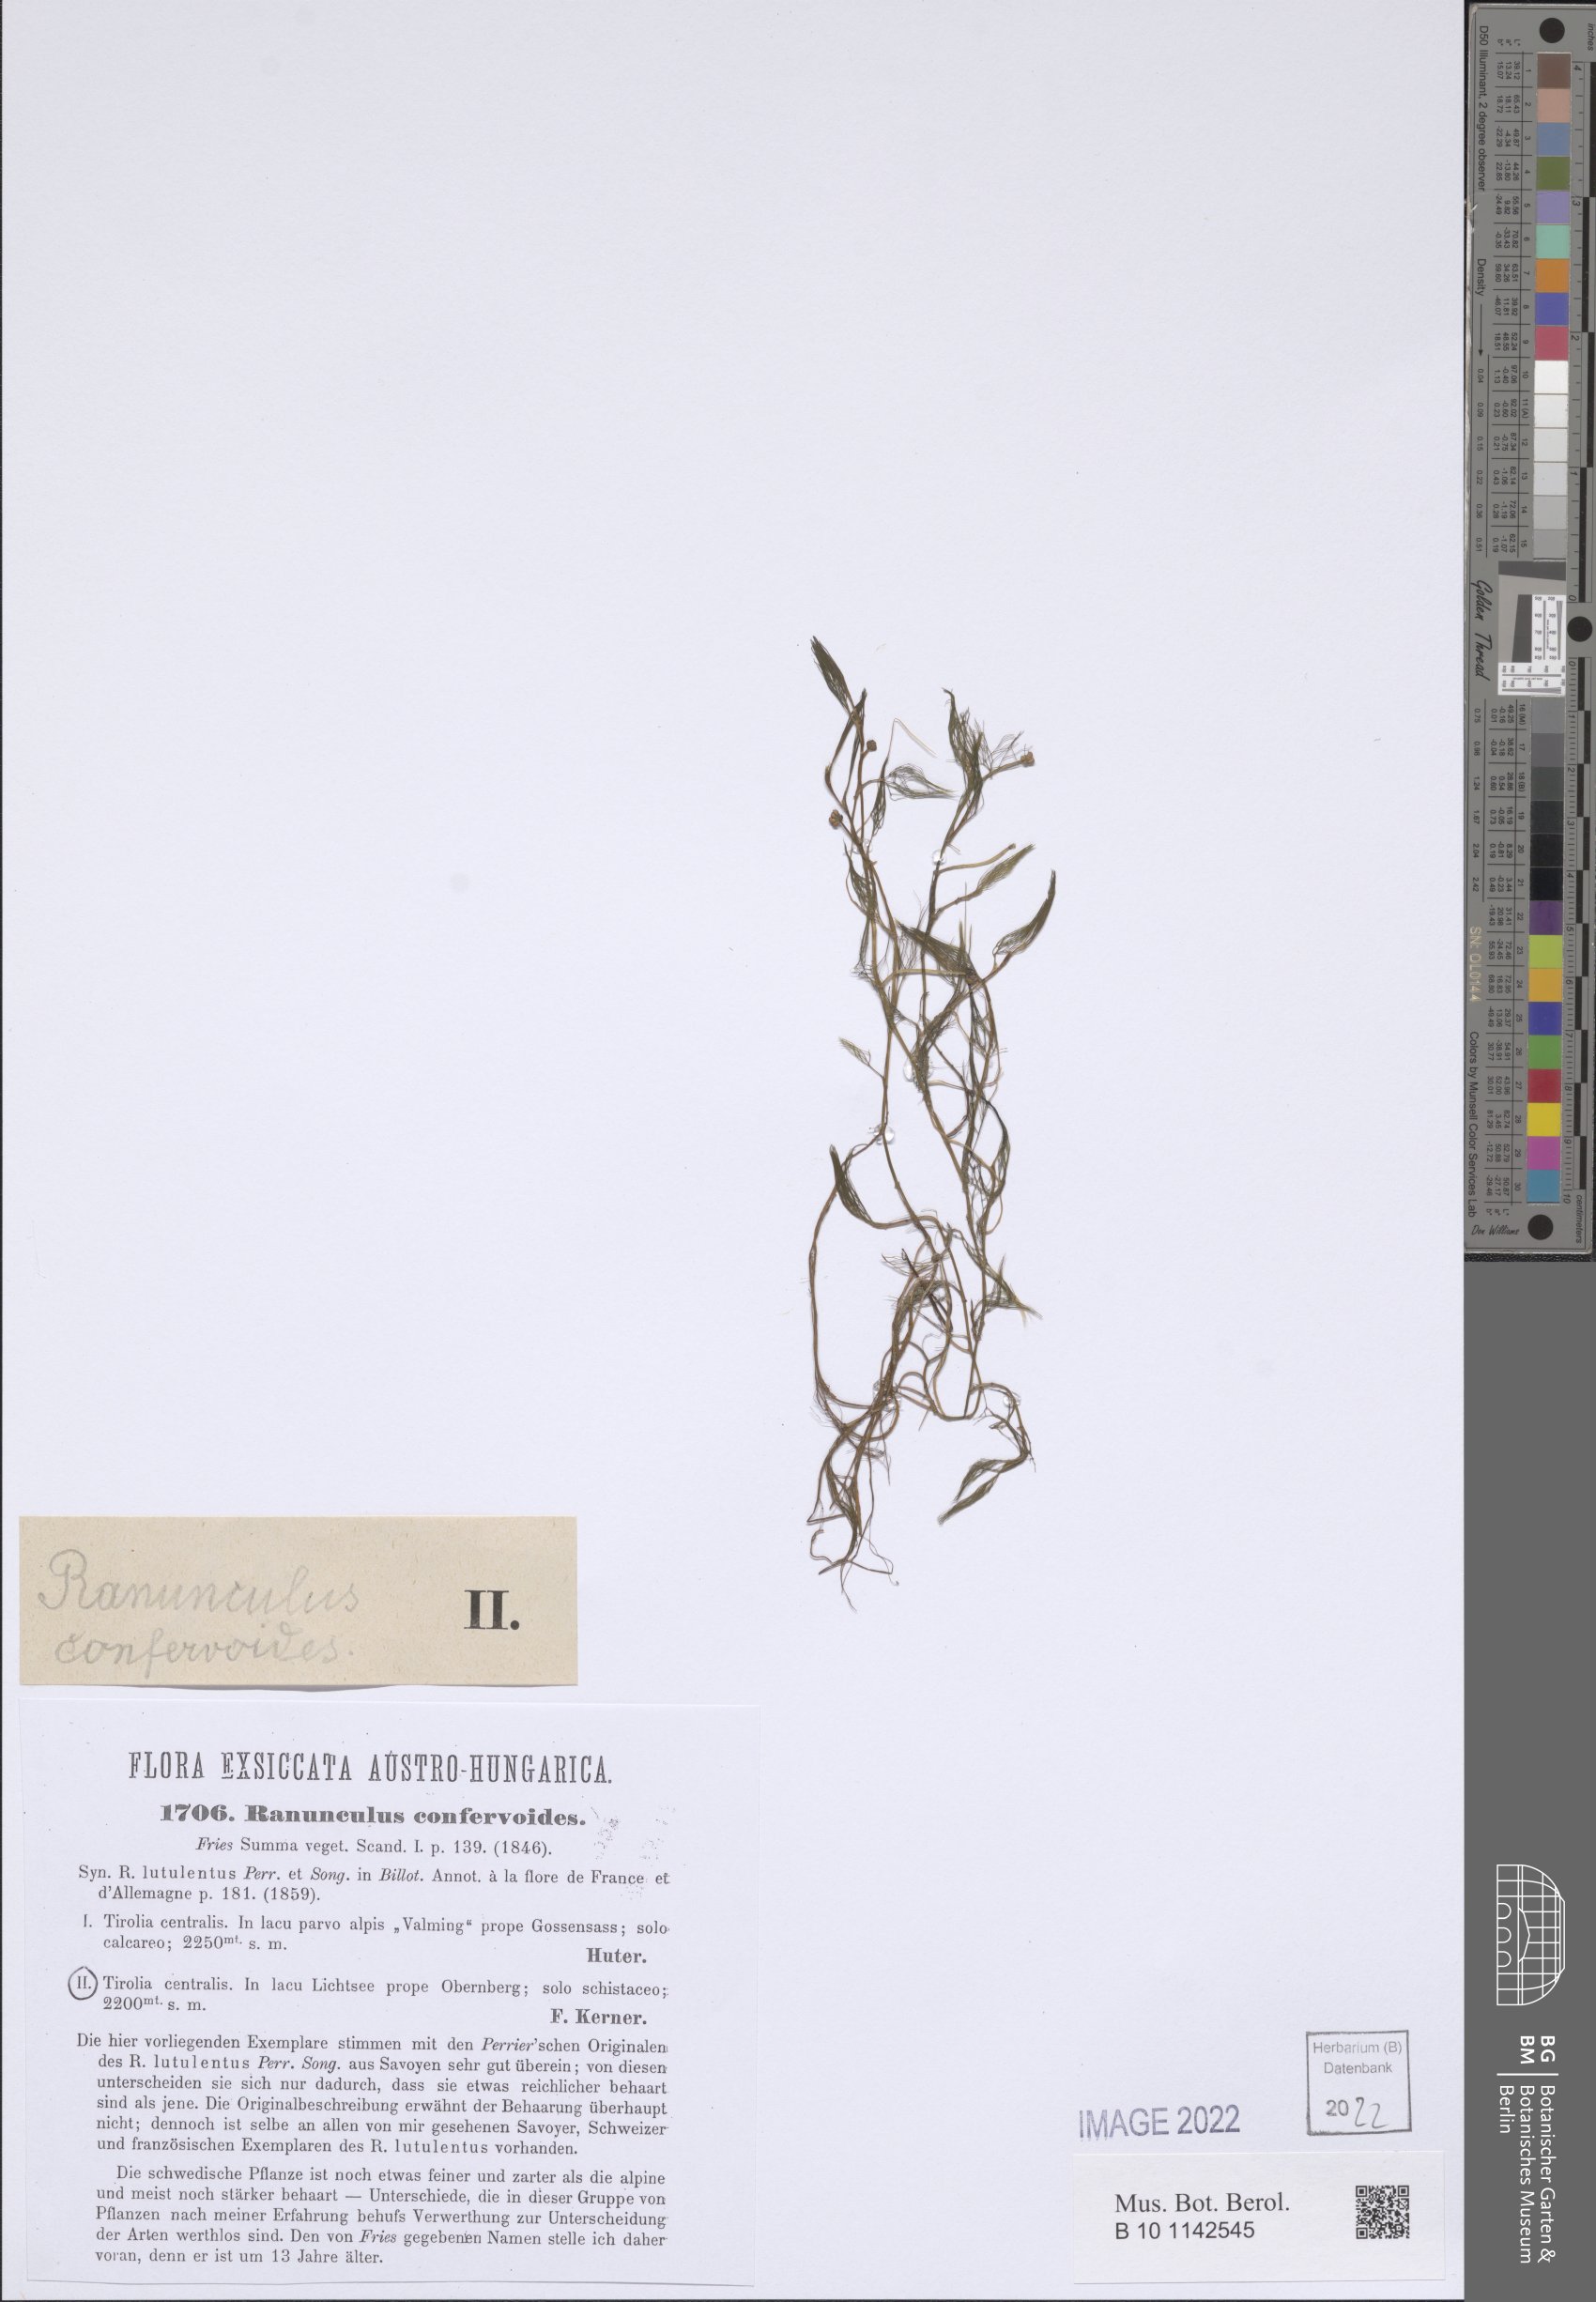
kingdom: Plantae
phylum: Tracheophyta
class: Magnoliopsida
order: Ranunculales
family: Ranunculaceae
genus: Ranunculus
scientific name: Ranunculus confervoides
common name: Delicate buttercup
